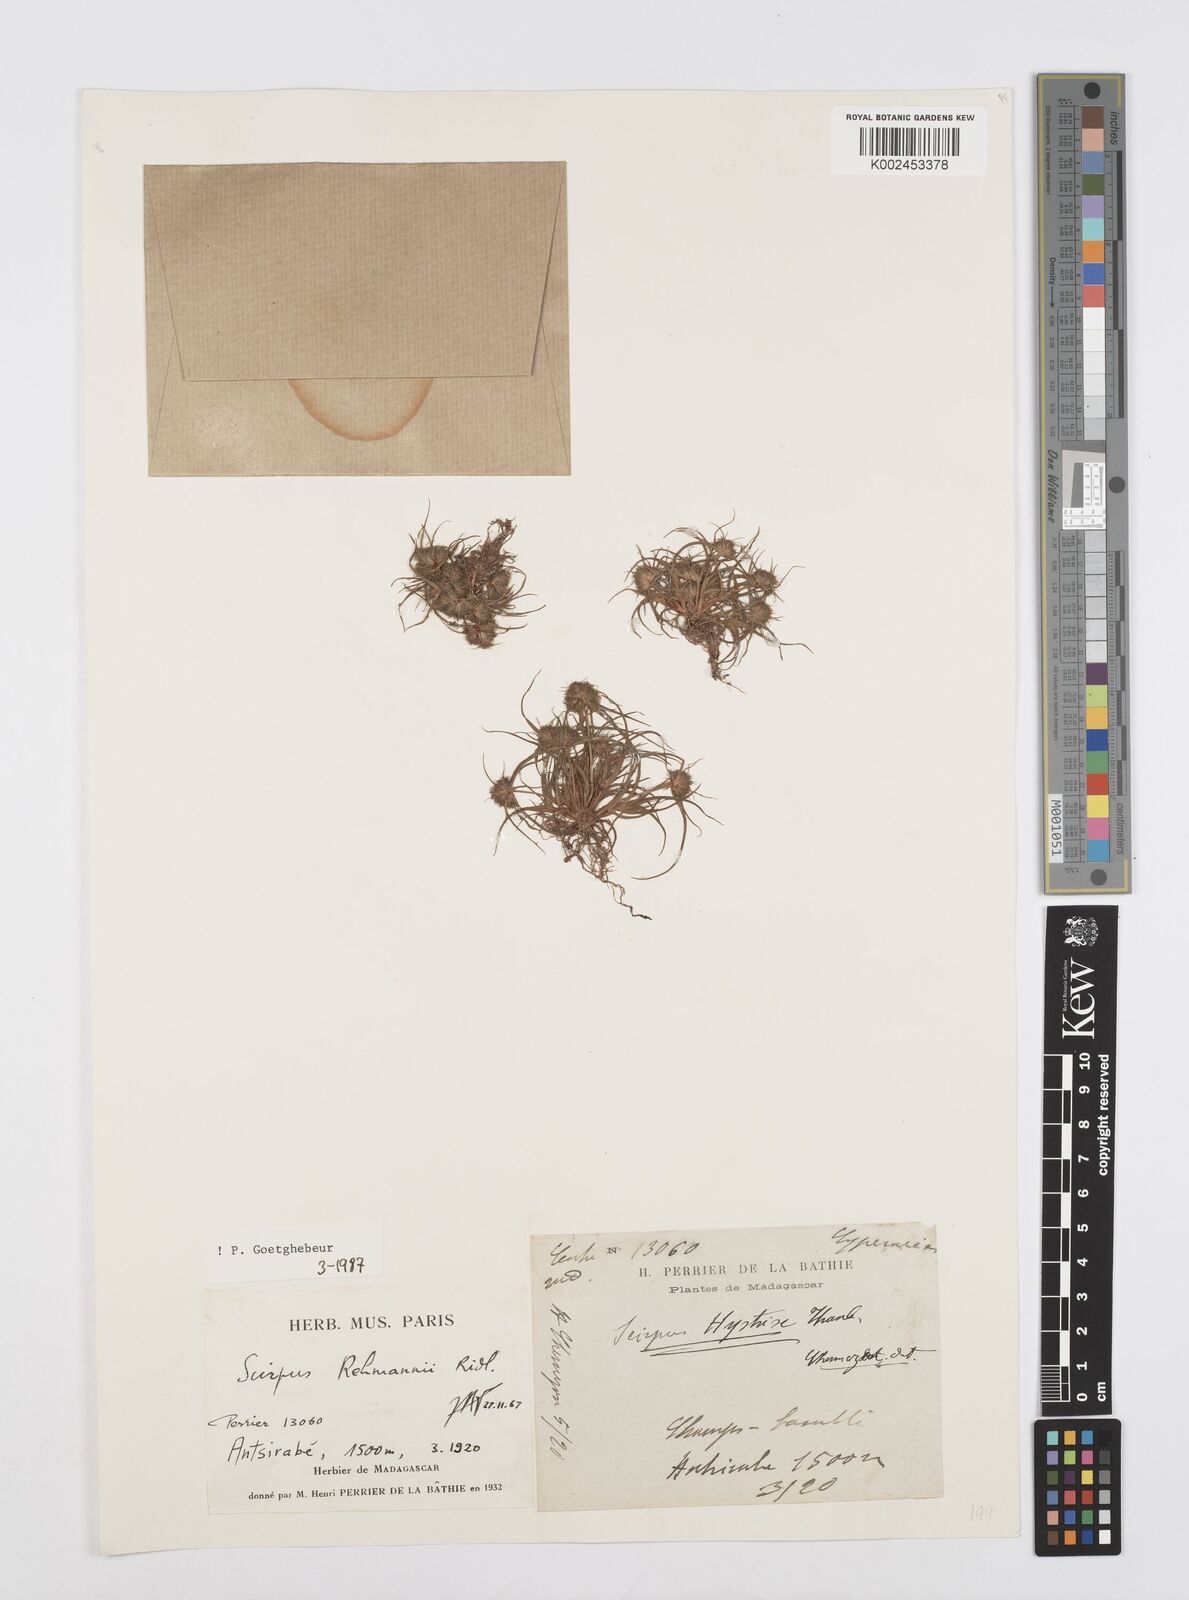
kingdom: Plantae
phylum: Tracheophyta
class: Liliopsida
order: Poales
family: Cyperaceae
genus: Cyperus
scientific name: Cyperus sanguinolentus
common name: Purpleglume flatsedge
